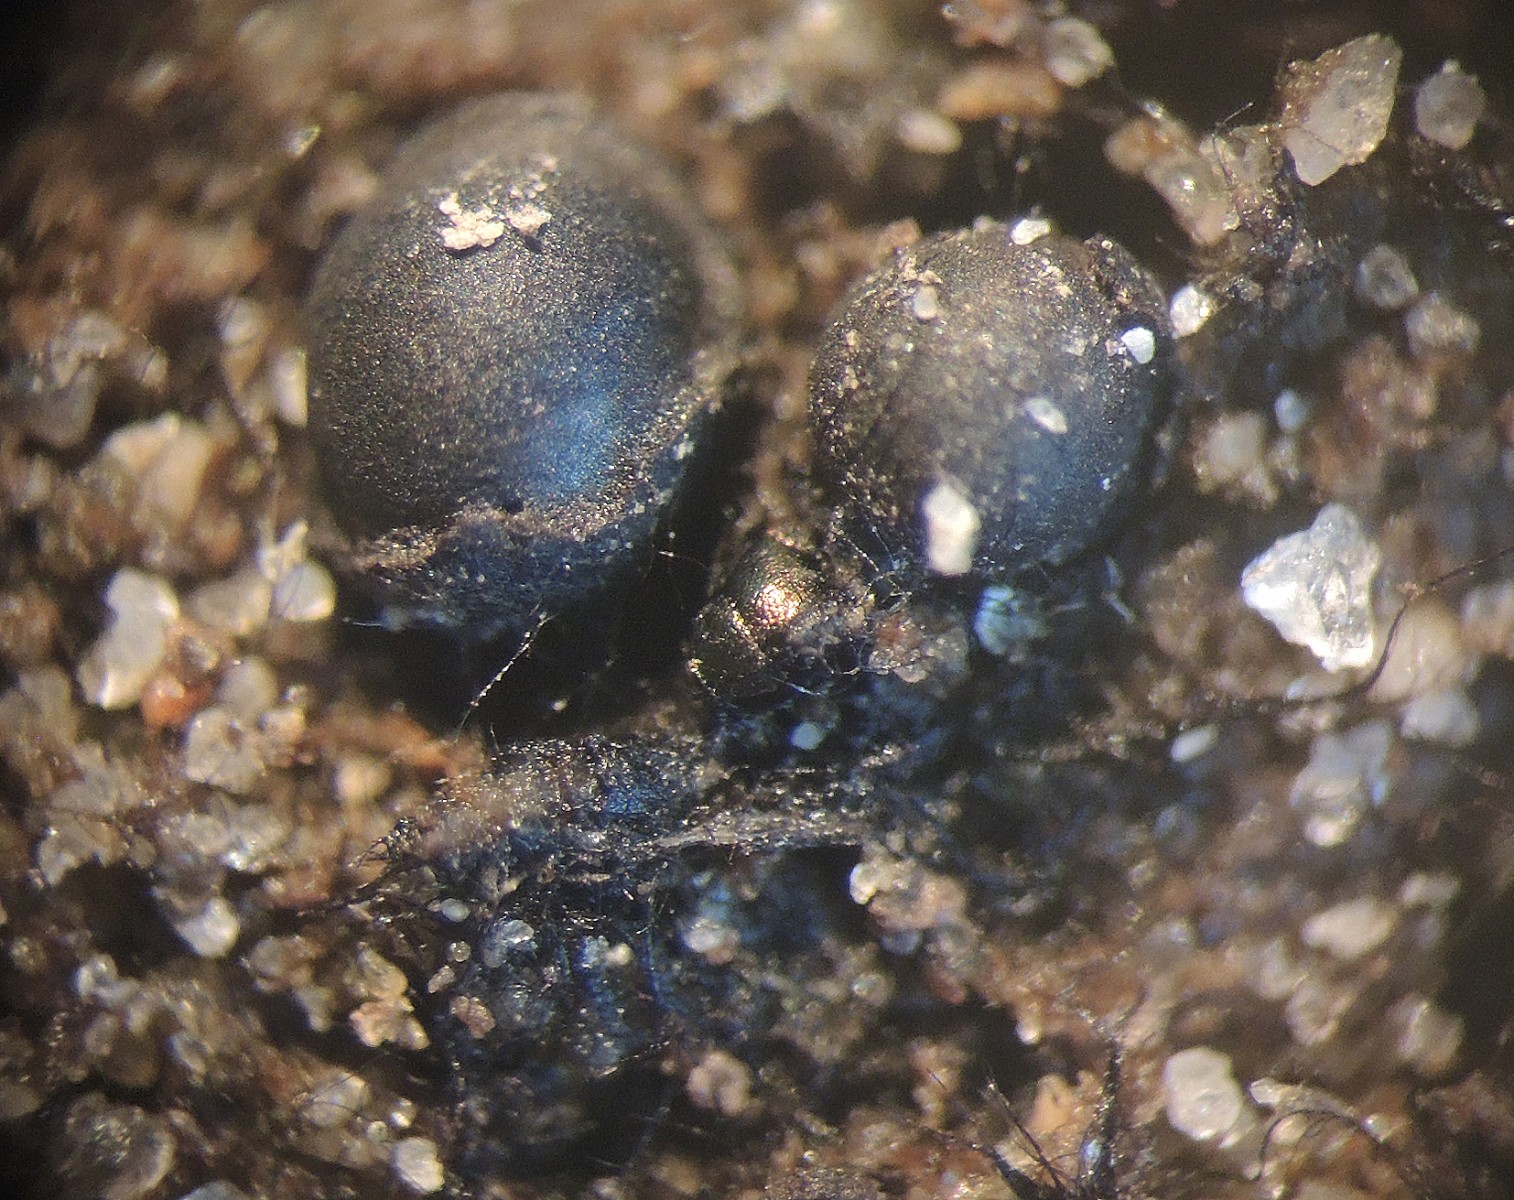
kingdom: Fungi
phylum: Ascomycota
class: Dothideomycetes
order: Mytilinidiales
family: Gloniaceae
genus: Cenococcum
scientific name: Cenococcum geophilum
